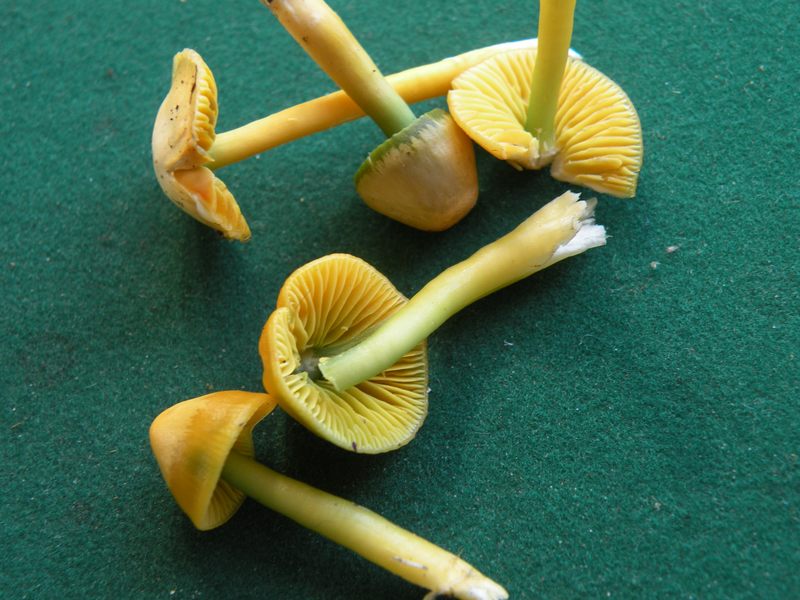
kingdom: Fungi
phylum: Basidiomycota
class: Agaricomycetes
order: Agaricales
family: Hygrophoraceae
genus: Gliophorus
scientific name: Gliophorus psittacinus
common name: papegøje-vokshat
